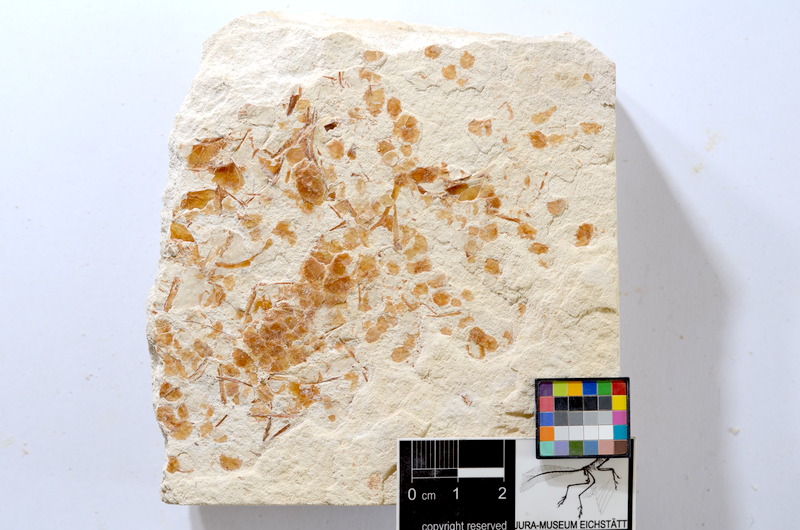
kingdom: Animalia
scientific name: Animalia
